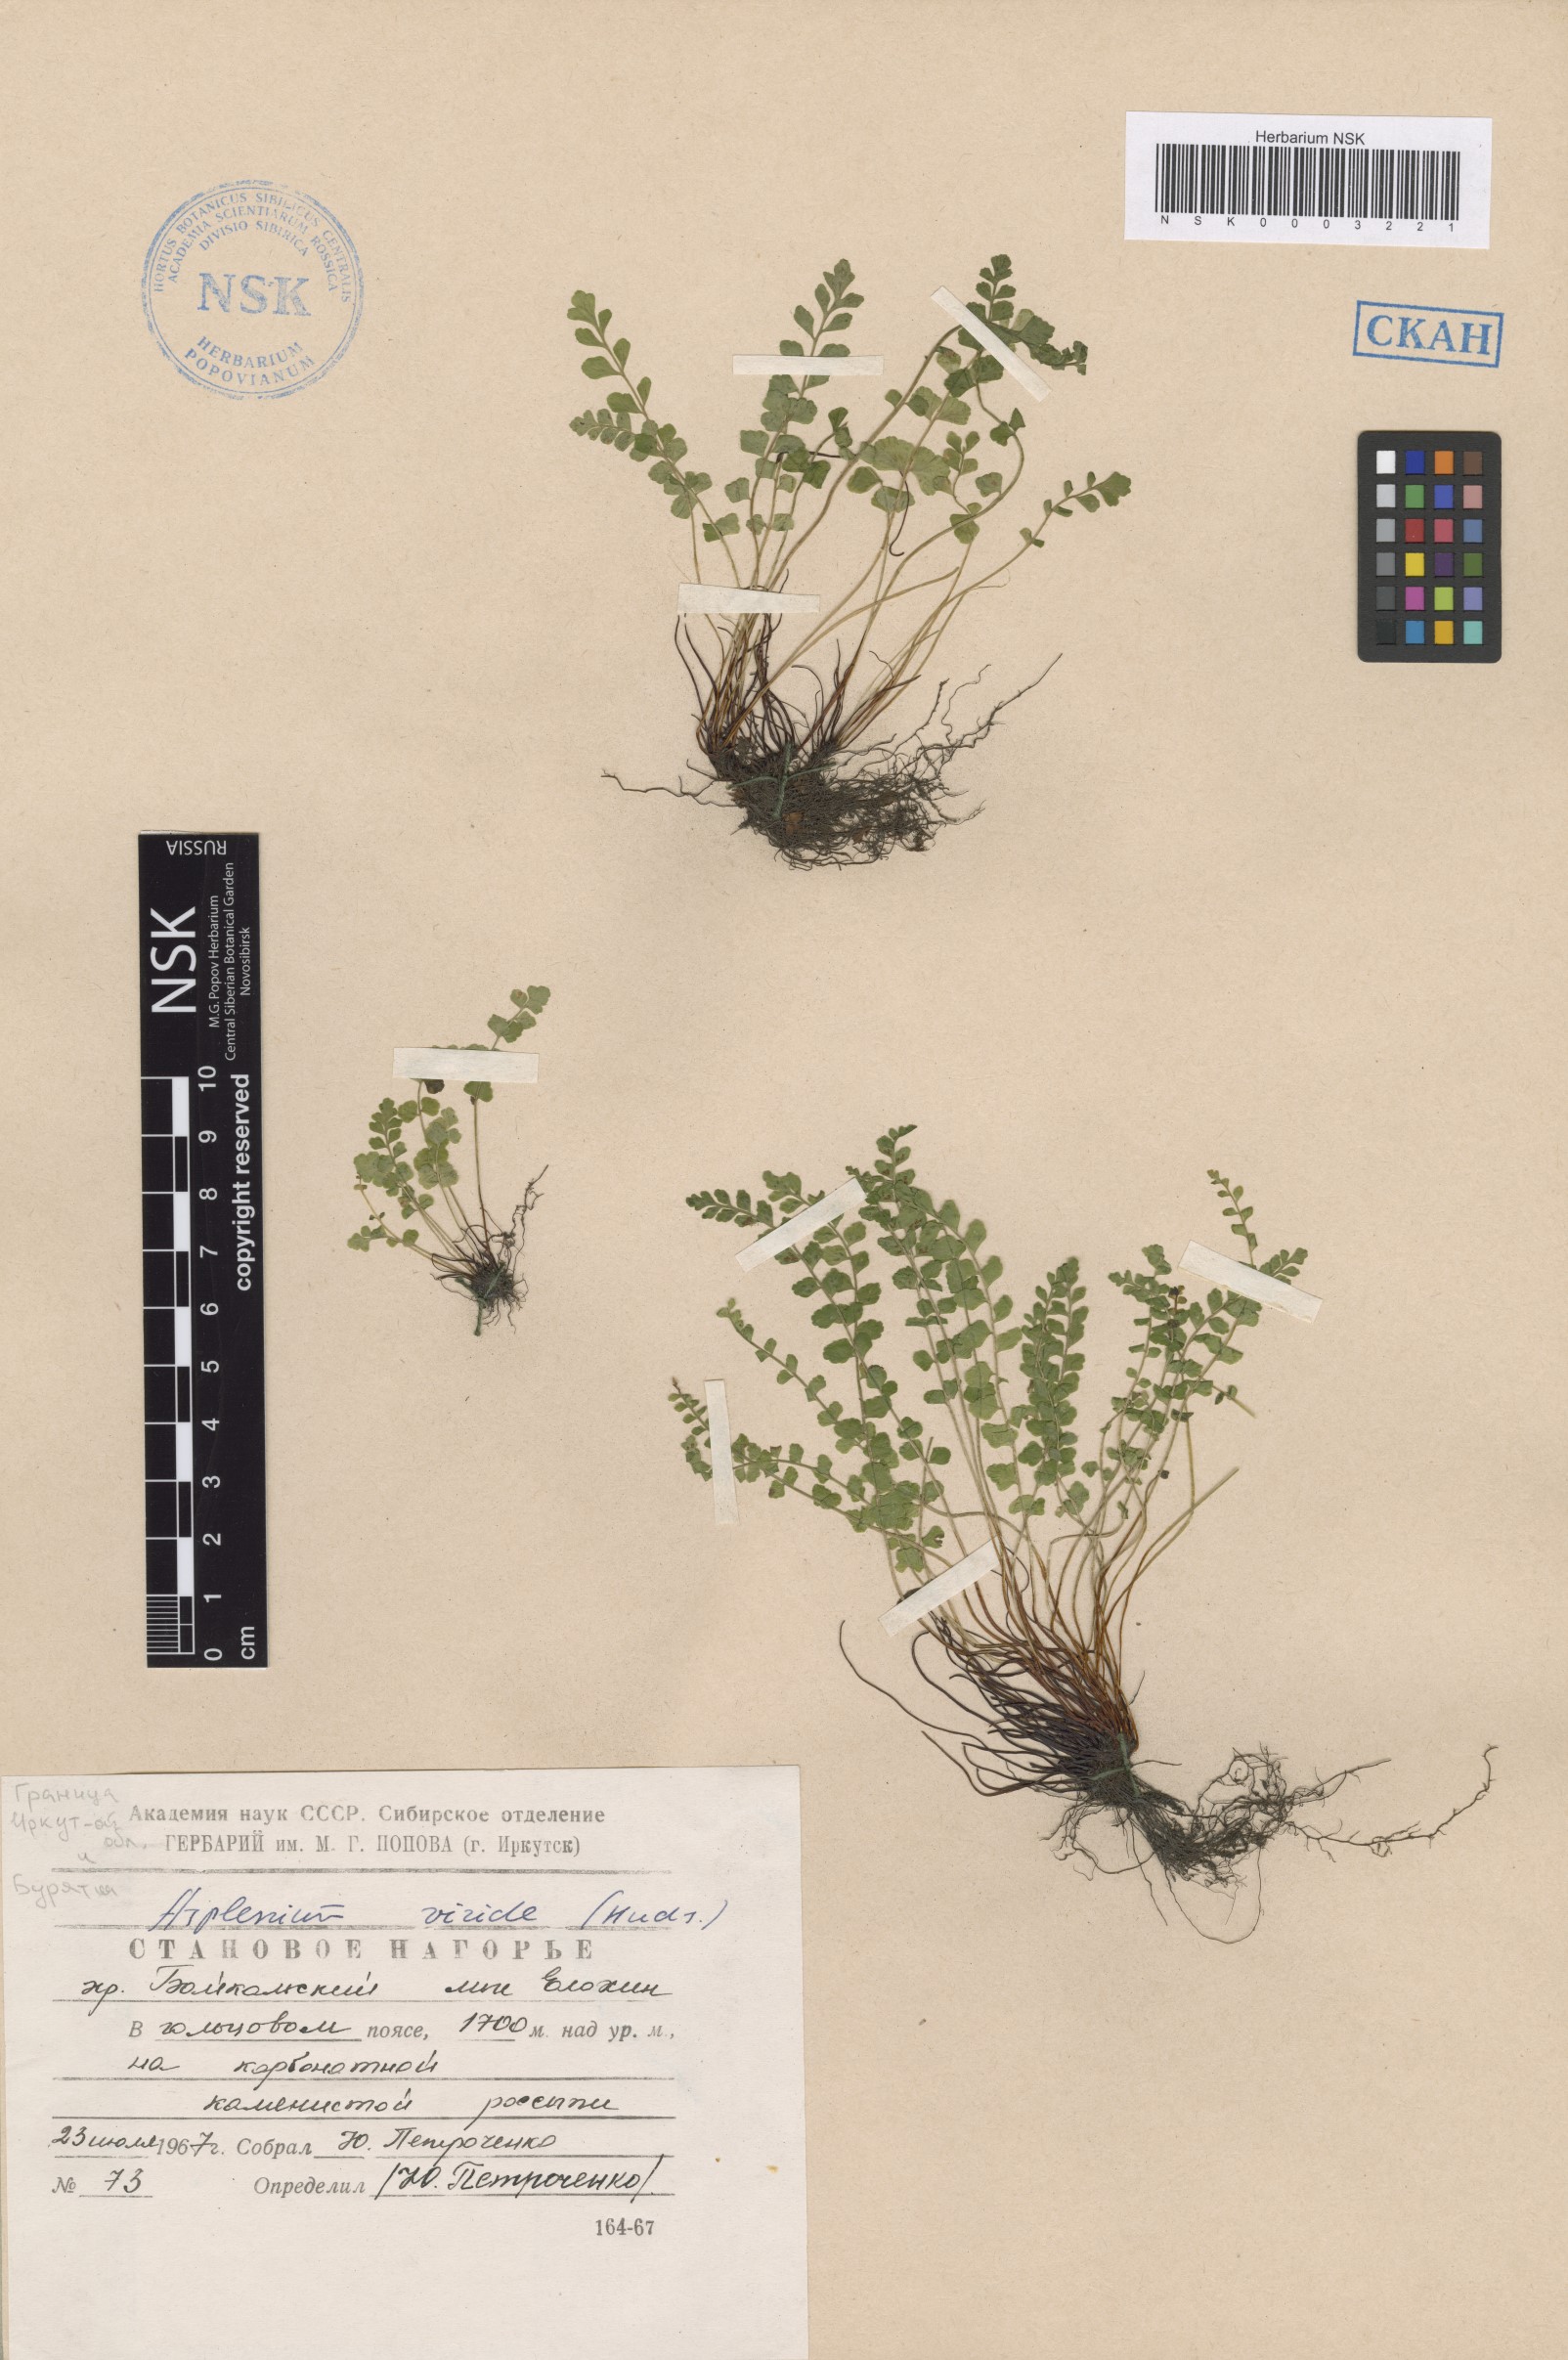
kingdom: Plantae
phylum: Tracheophyta
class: Polypodiopsida
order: Polypodiales
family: Aspleniaceae
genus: Asplenium
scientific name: Asplenium viride
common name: Green spleenwort
